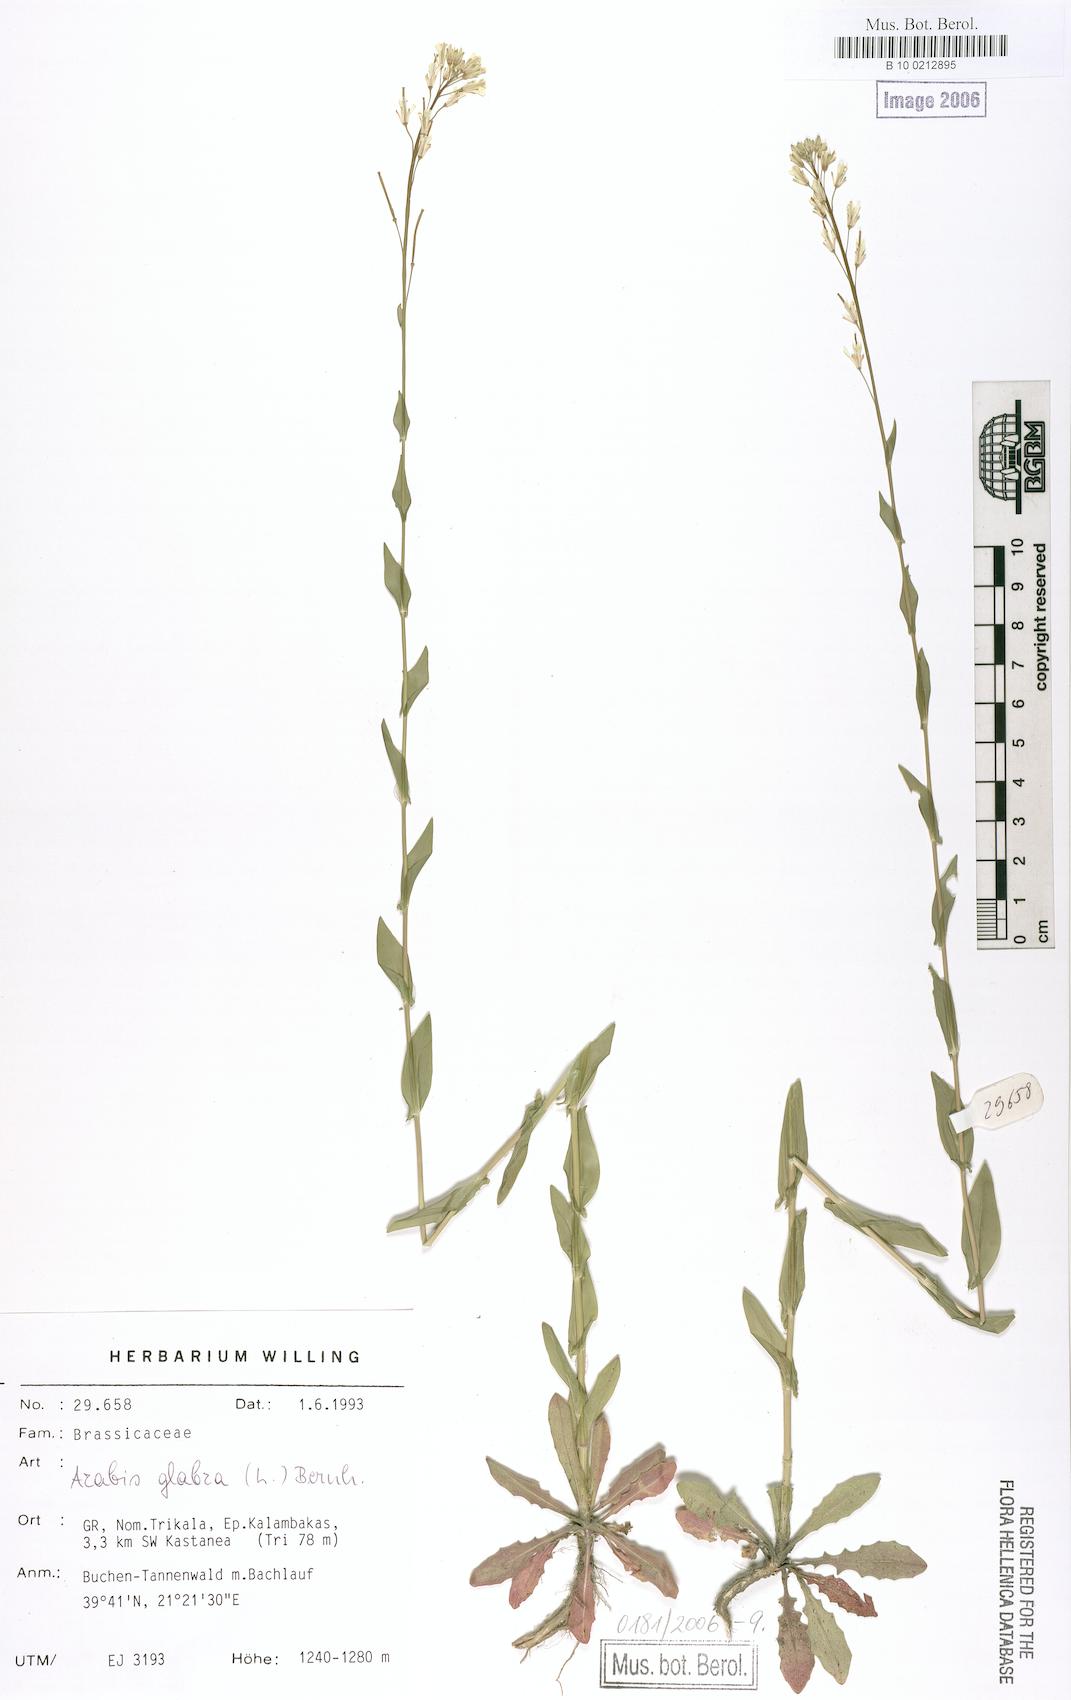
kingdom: Plantae
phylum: Tracheophyta
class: Magnoliopsida
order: Brassicales
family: Brassicaceae
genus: Turritis
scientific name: Turritis glabra
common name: Tower rockcress
